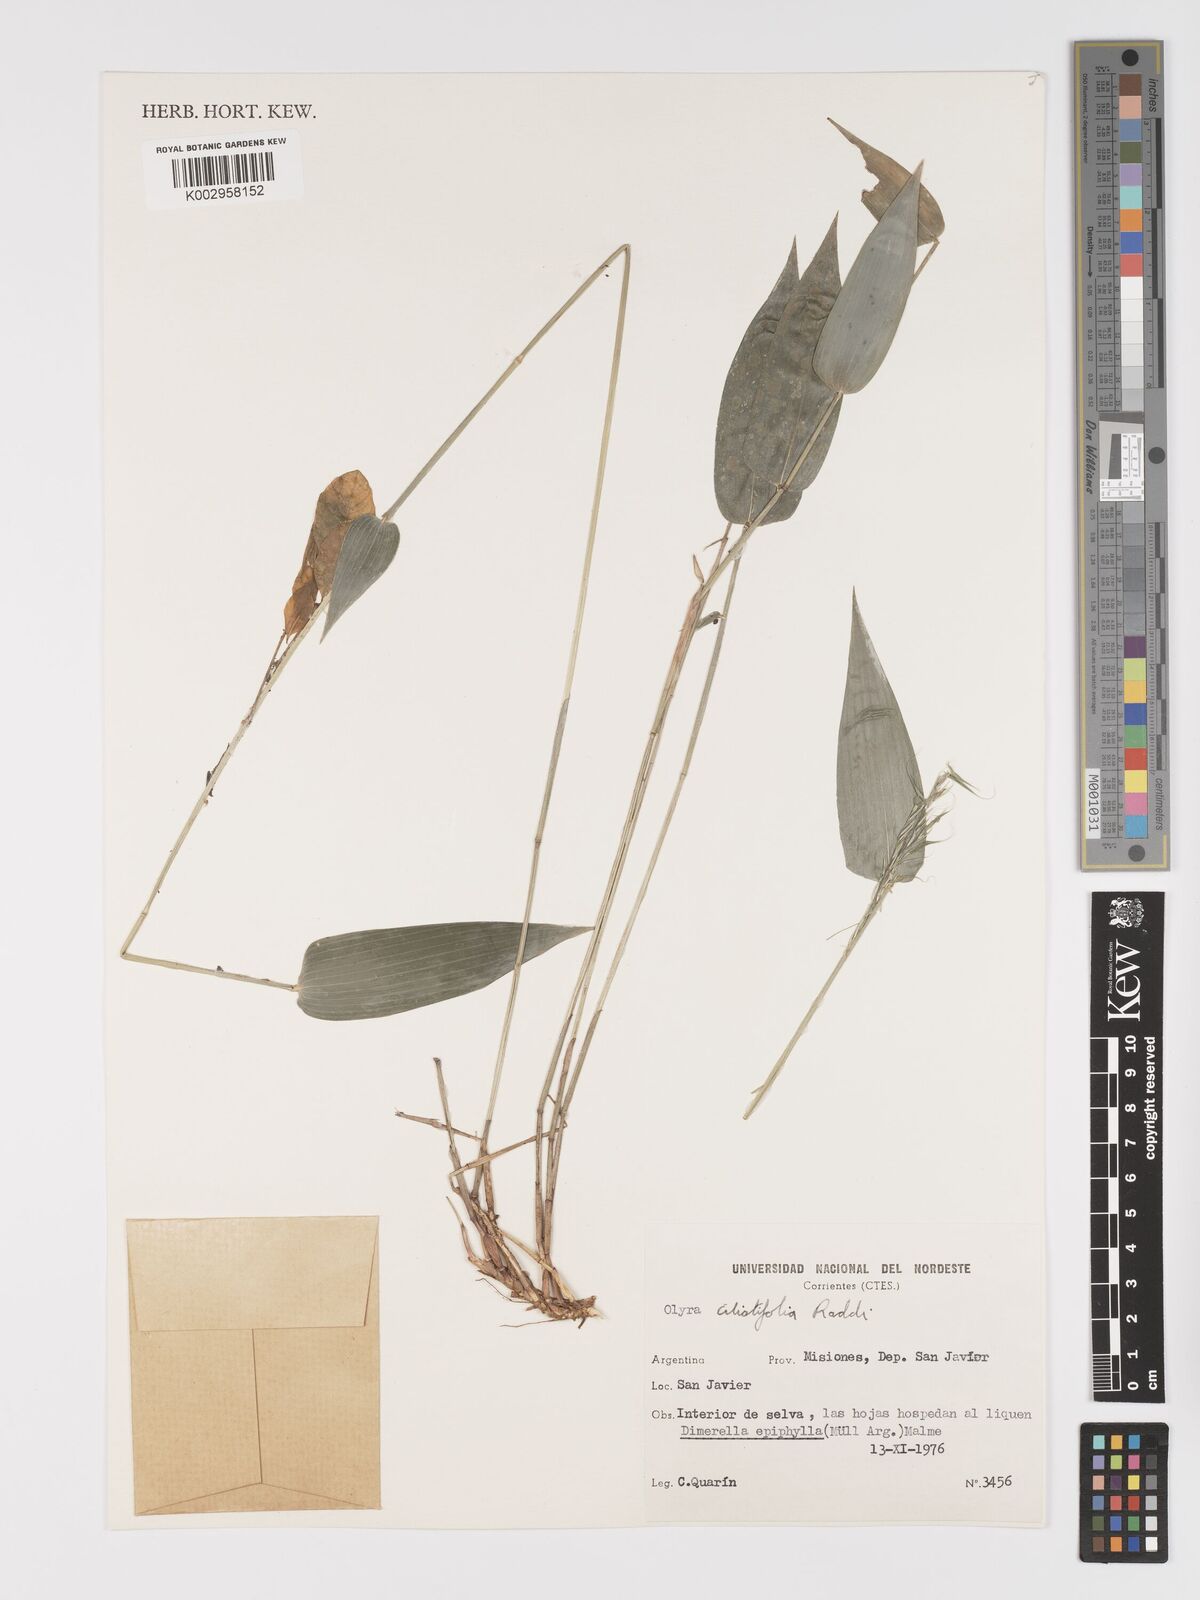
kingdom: Plantae
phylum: Tracheophyta
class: Liliopsida
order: Poales
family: Poaceae
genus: Olyra
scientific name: Olyra ciliatifolia
